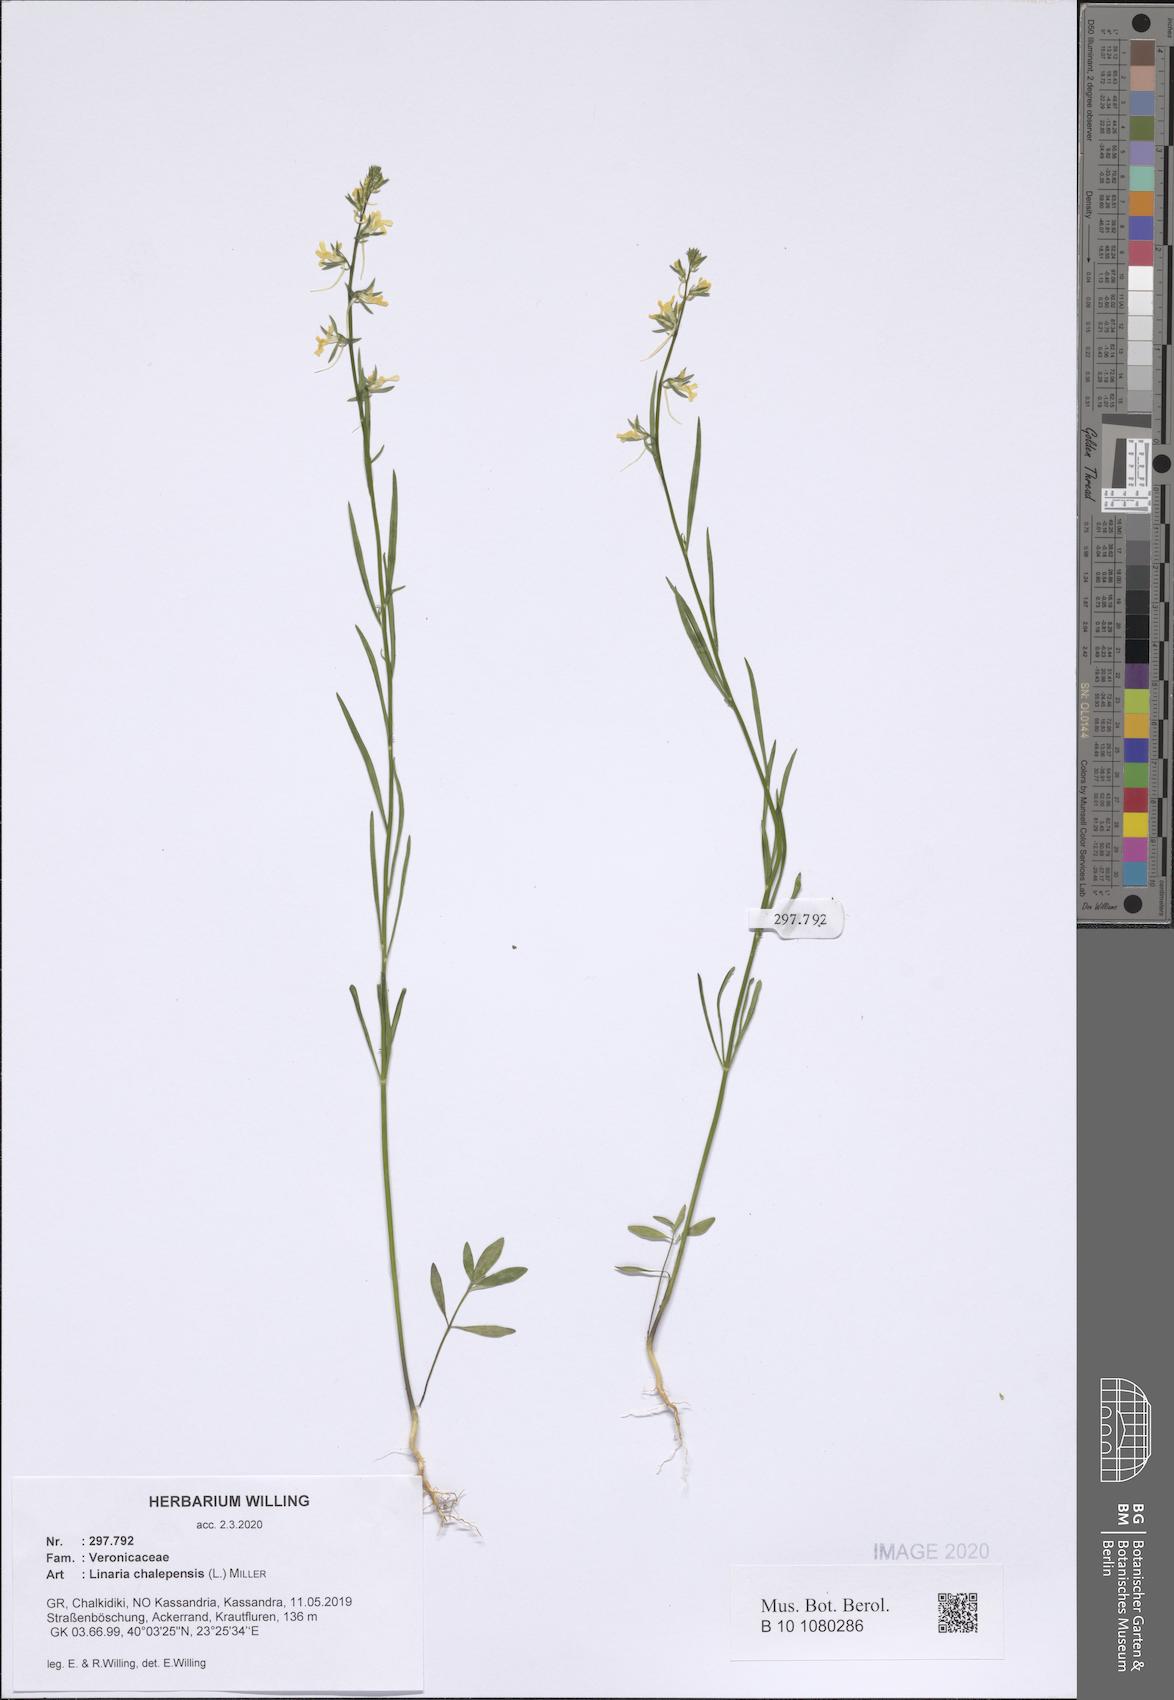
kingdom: Plantae
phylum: Tracheophyta
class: Magnoliopsida
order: Lamiales
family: Plantaginaceae
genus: Linaria
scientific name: Linaria chalepensis
